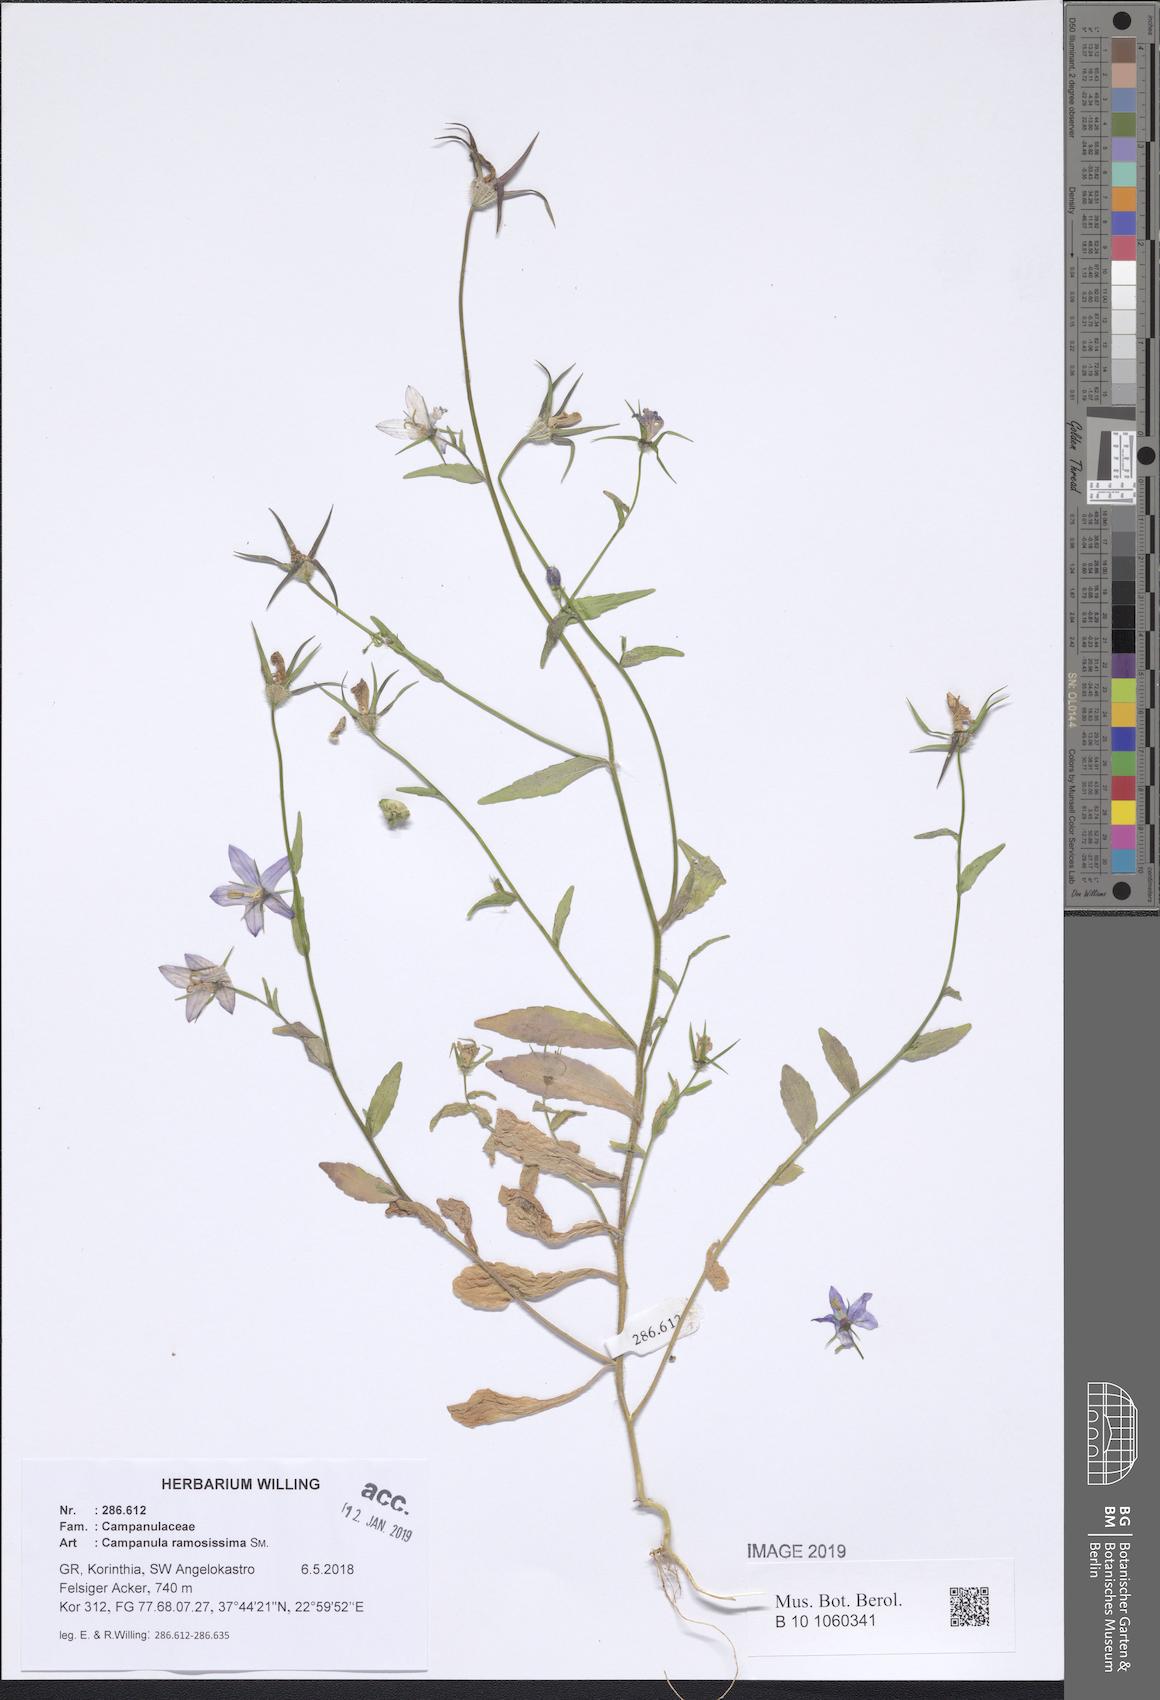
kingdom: Plantae
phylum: Tracheophyta
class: Magnoliopsida
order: Asterales
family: Campanulaceae
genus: Campanula
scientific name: Campanula ramosissima
